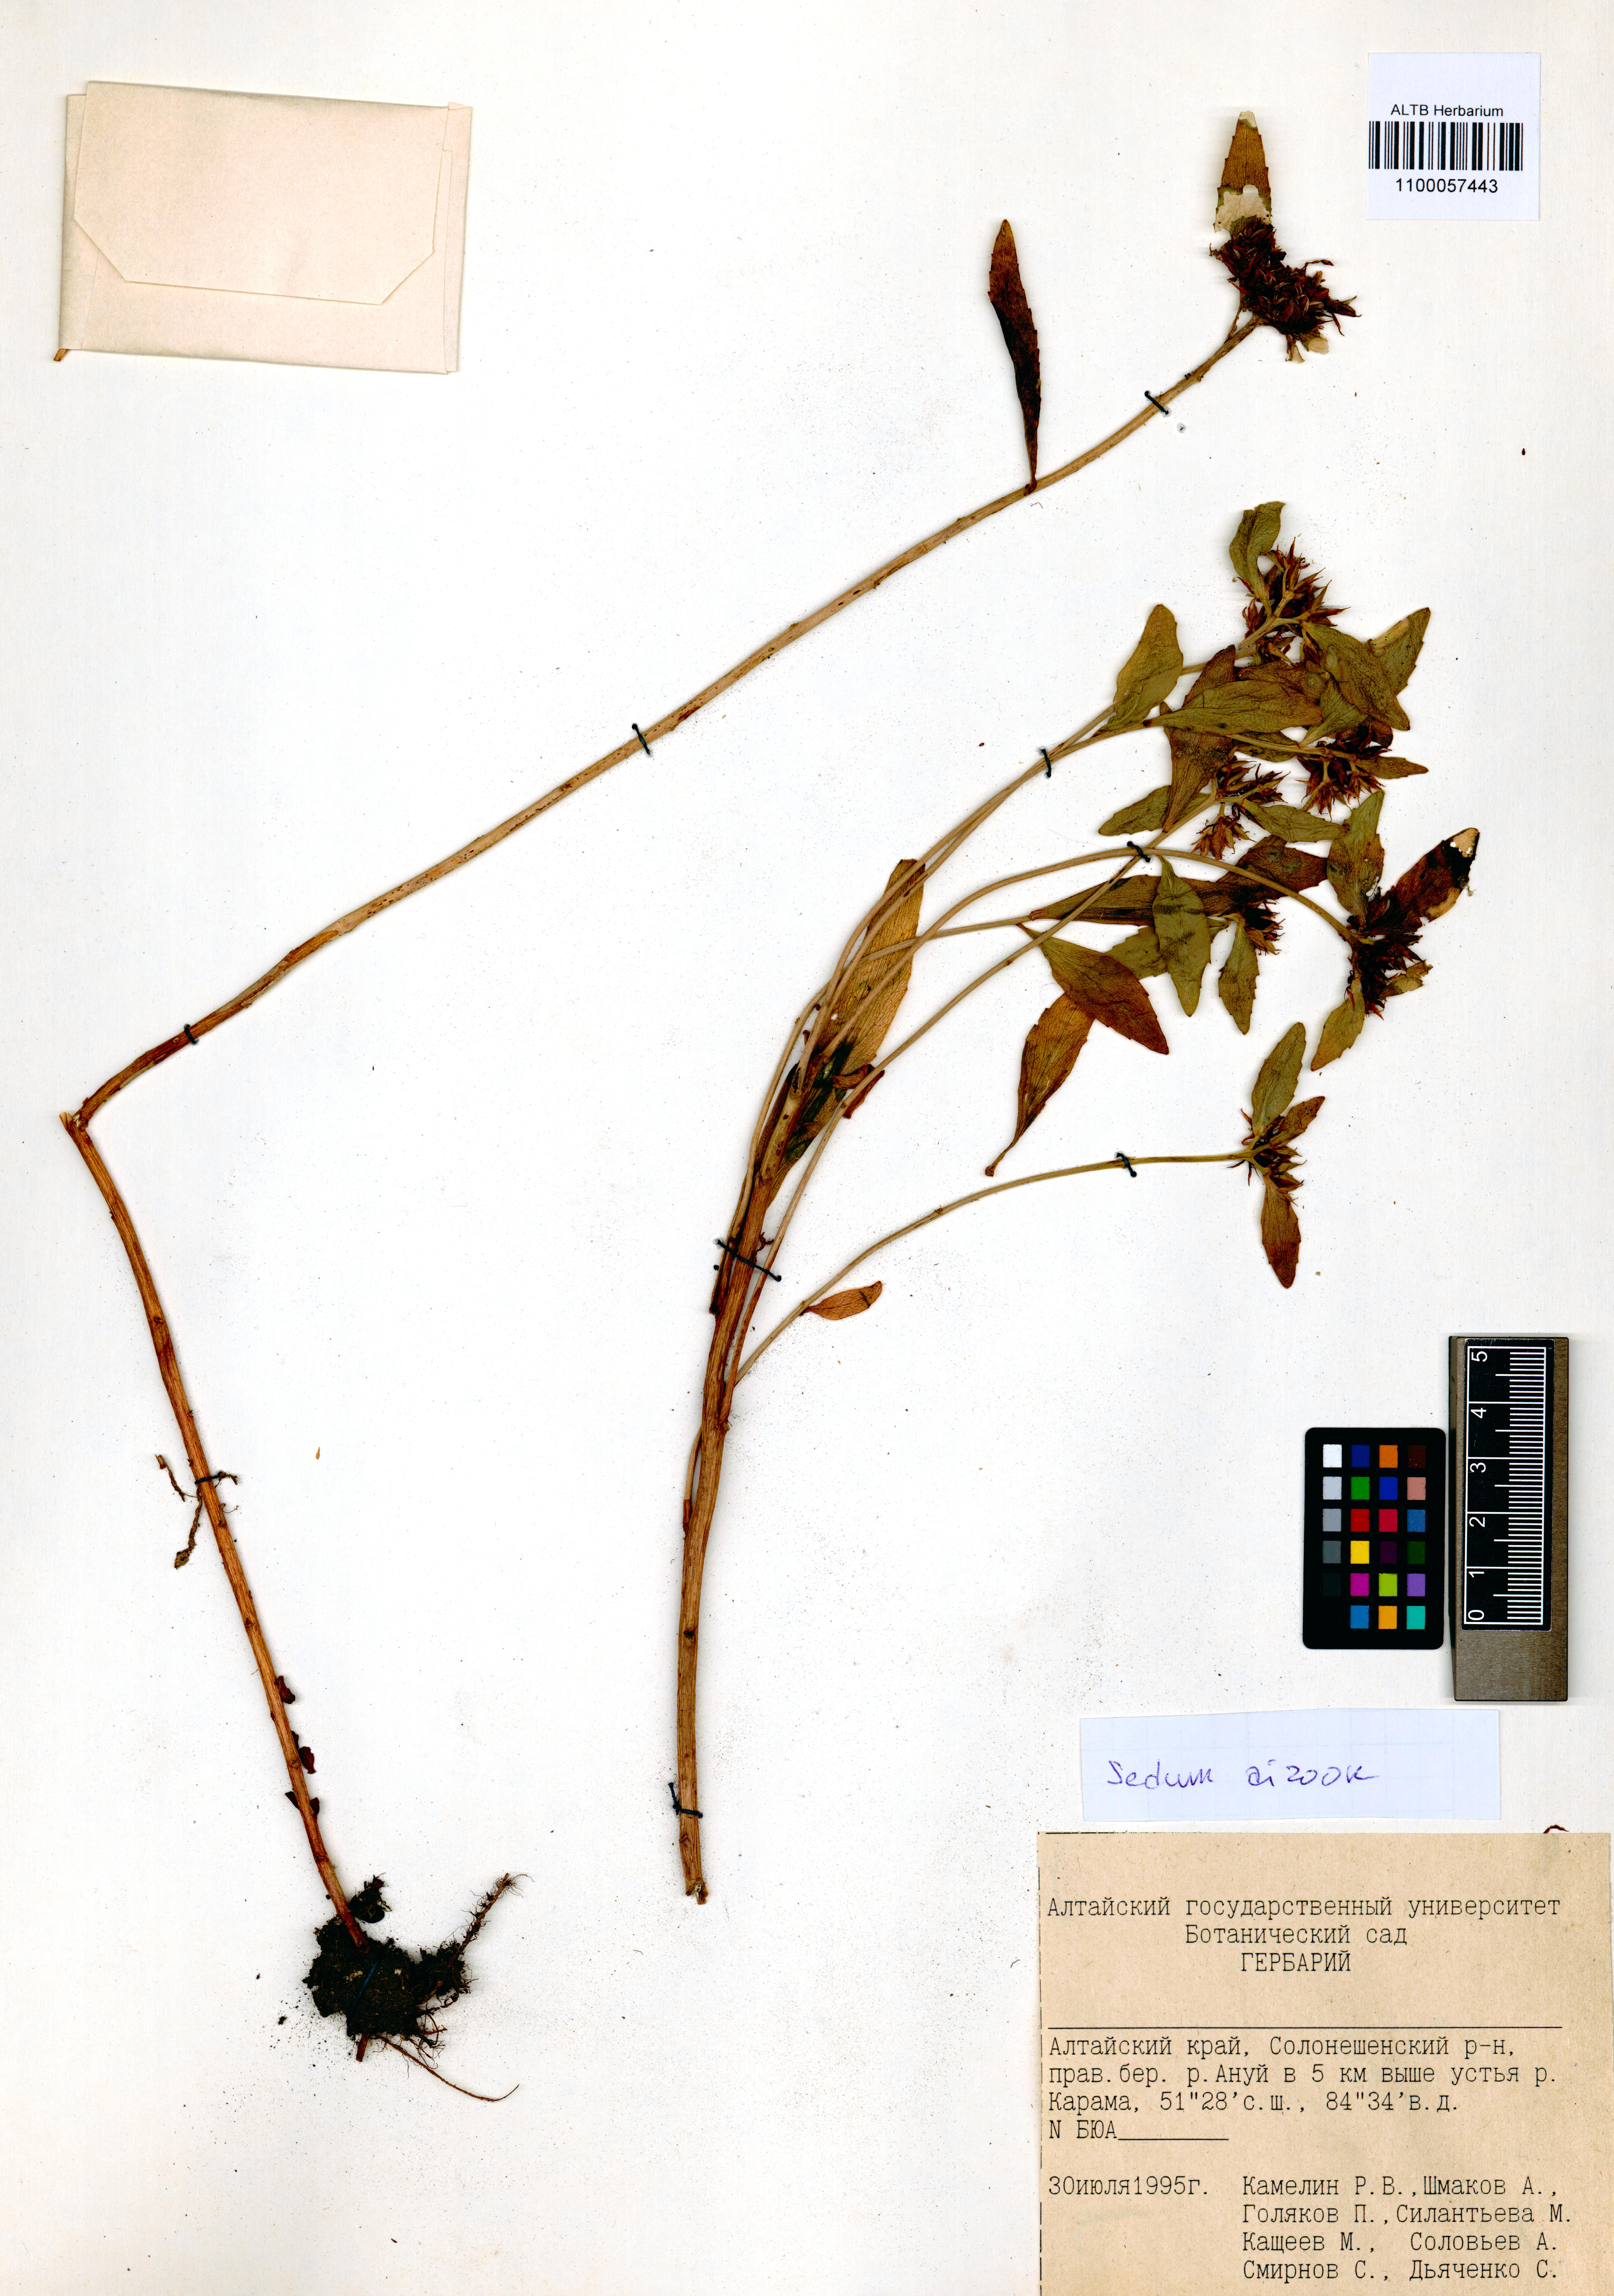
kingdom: Plantae
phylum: Tracheophyta
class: Magnoliopsida
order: Saxifragales
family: Crassulaceae
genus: Phedimus
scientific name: Phedimus aizoon
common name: Orpin aizoon
